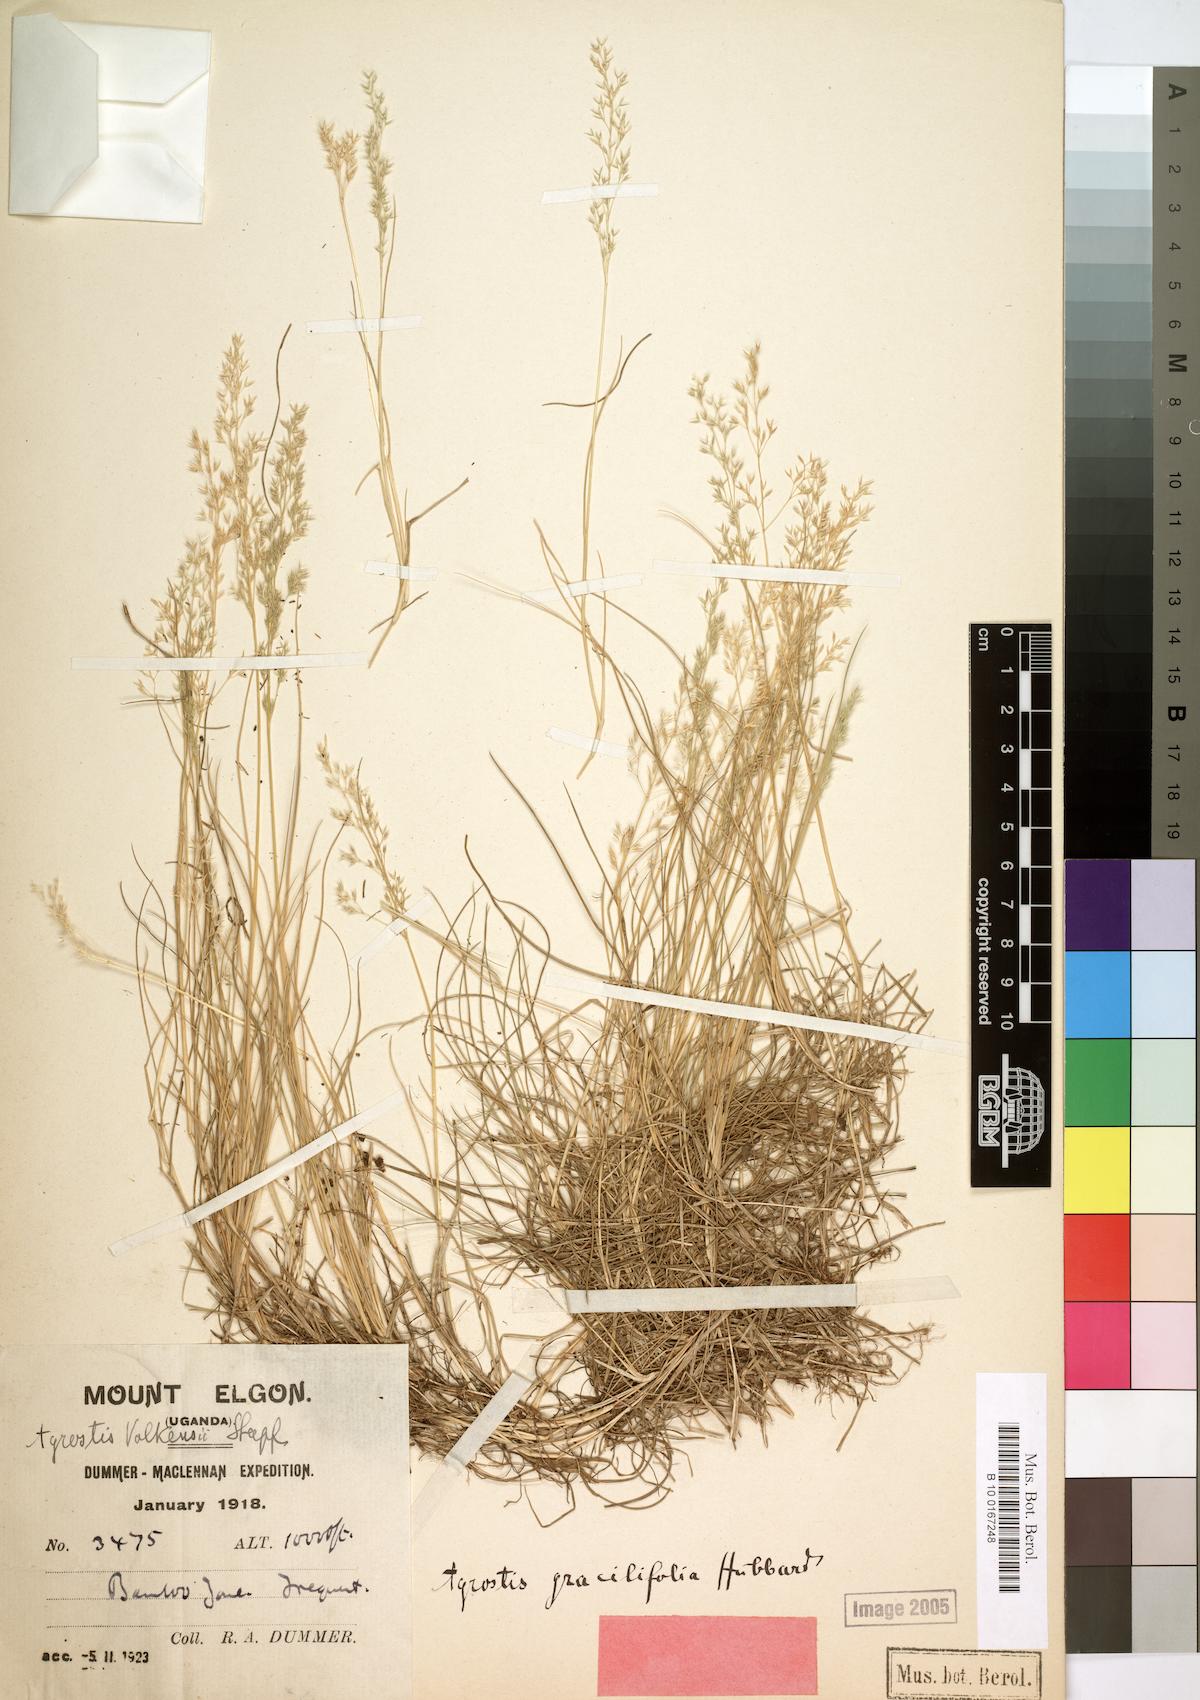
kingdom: Plantae
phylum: Tracheophyta
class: Liliopsida
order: Poales
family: Poaceae
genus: Agrostis
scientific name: Agrostis gracilifolia
